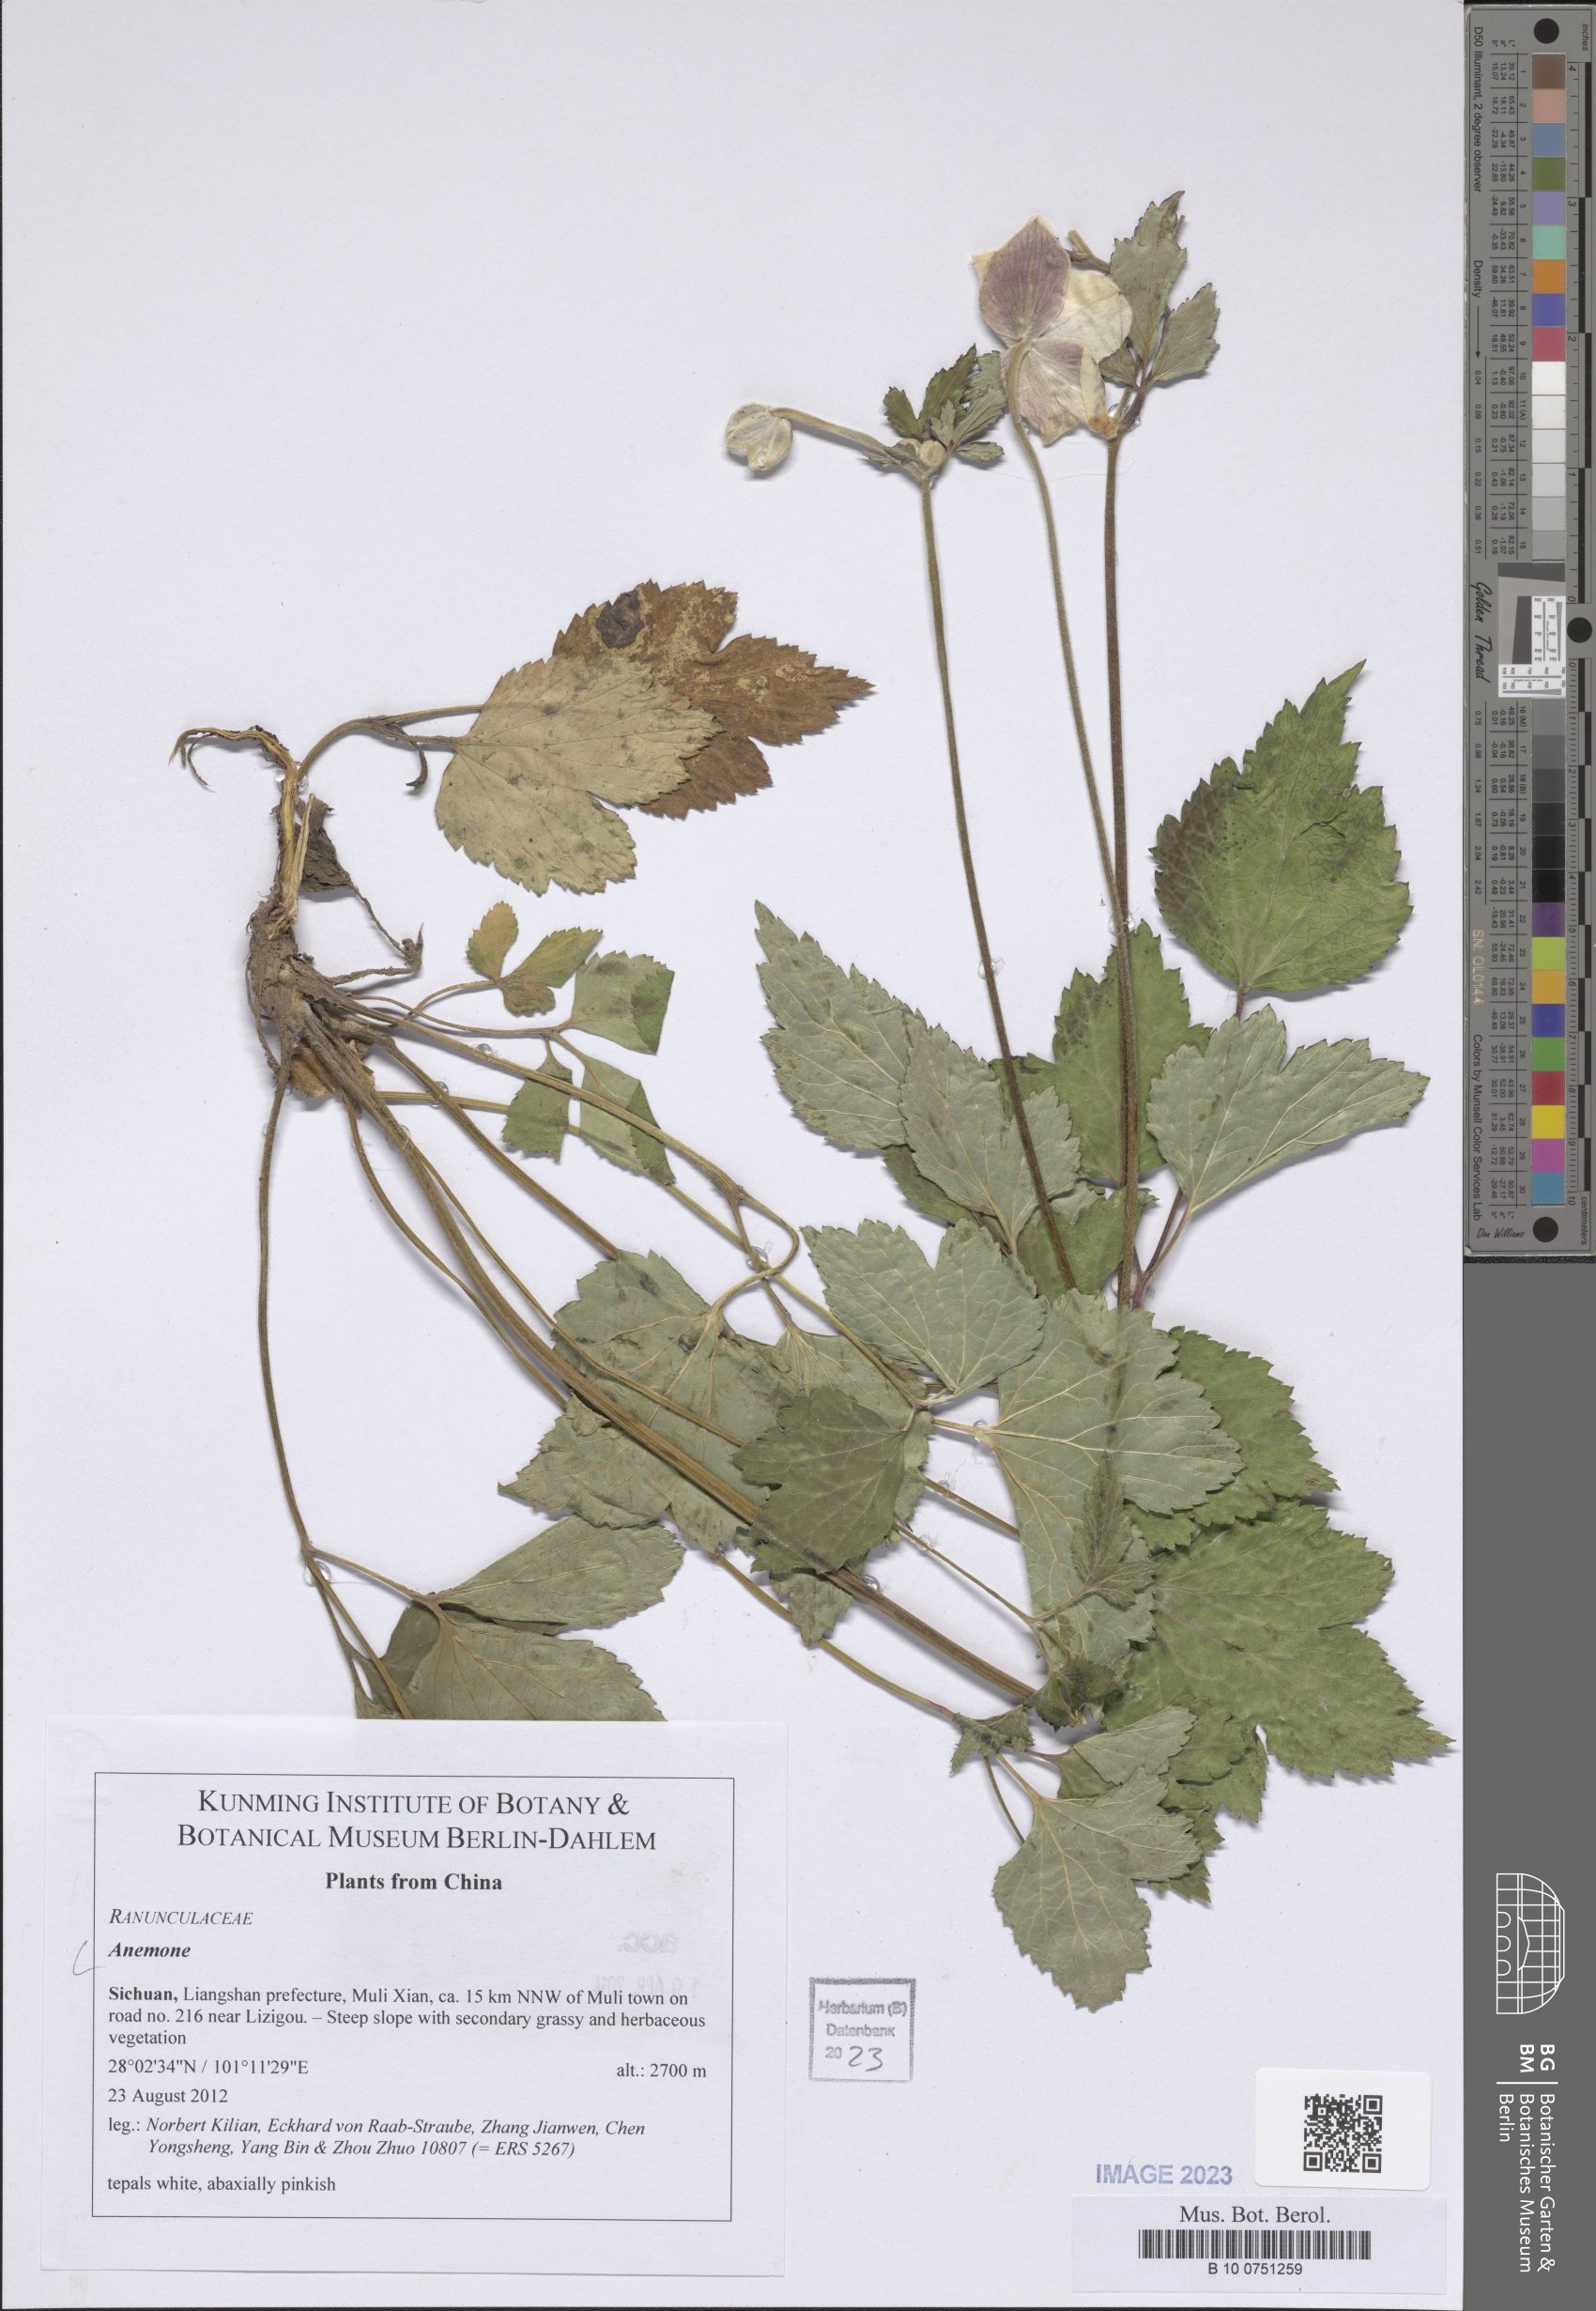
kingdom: Plantae
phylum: Tracheophyta
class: Magnoliopsida
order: Ranunculales
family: Ranunculaceae
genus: Anemone
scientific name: Anemone
